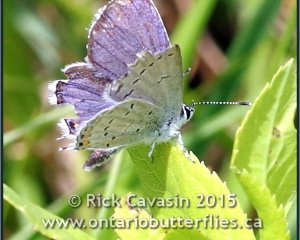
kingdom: Animalia
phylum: Arthropoda
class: Insecta
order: Lepidoptera
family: Lycaenidae
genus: Elkalyce
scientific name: Elkalyce comyntas
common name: Eastern Tailed-Blue
